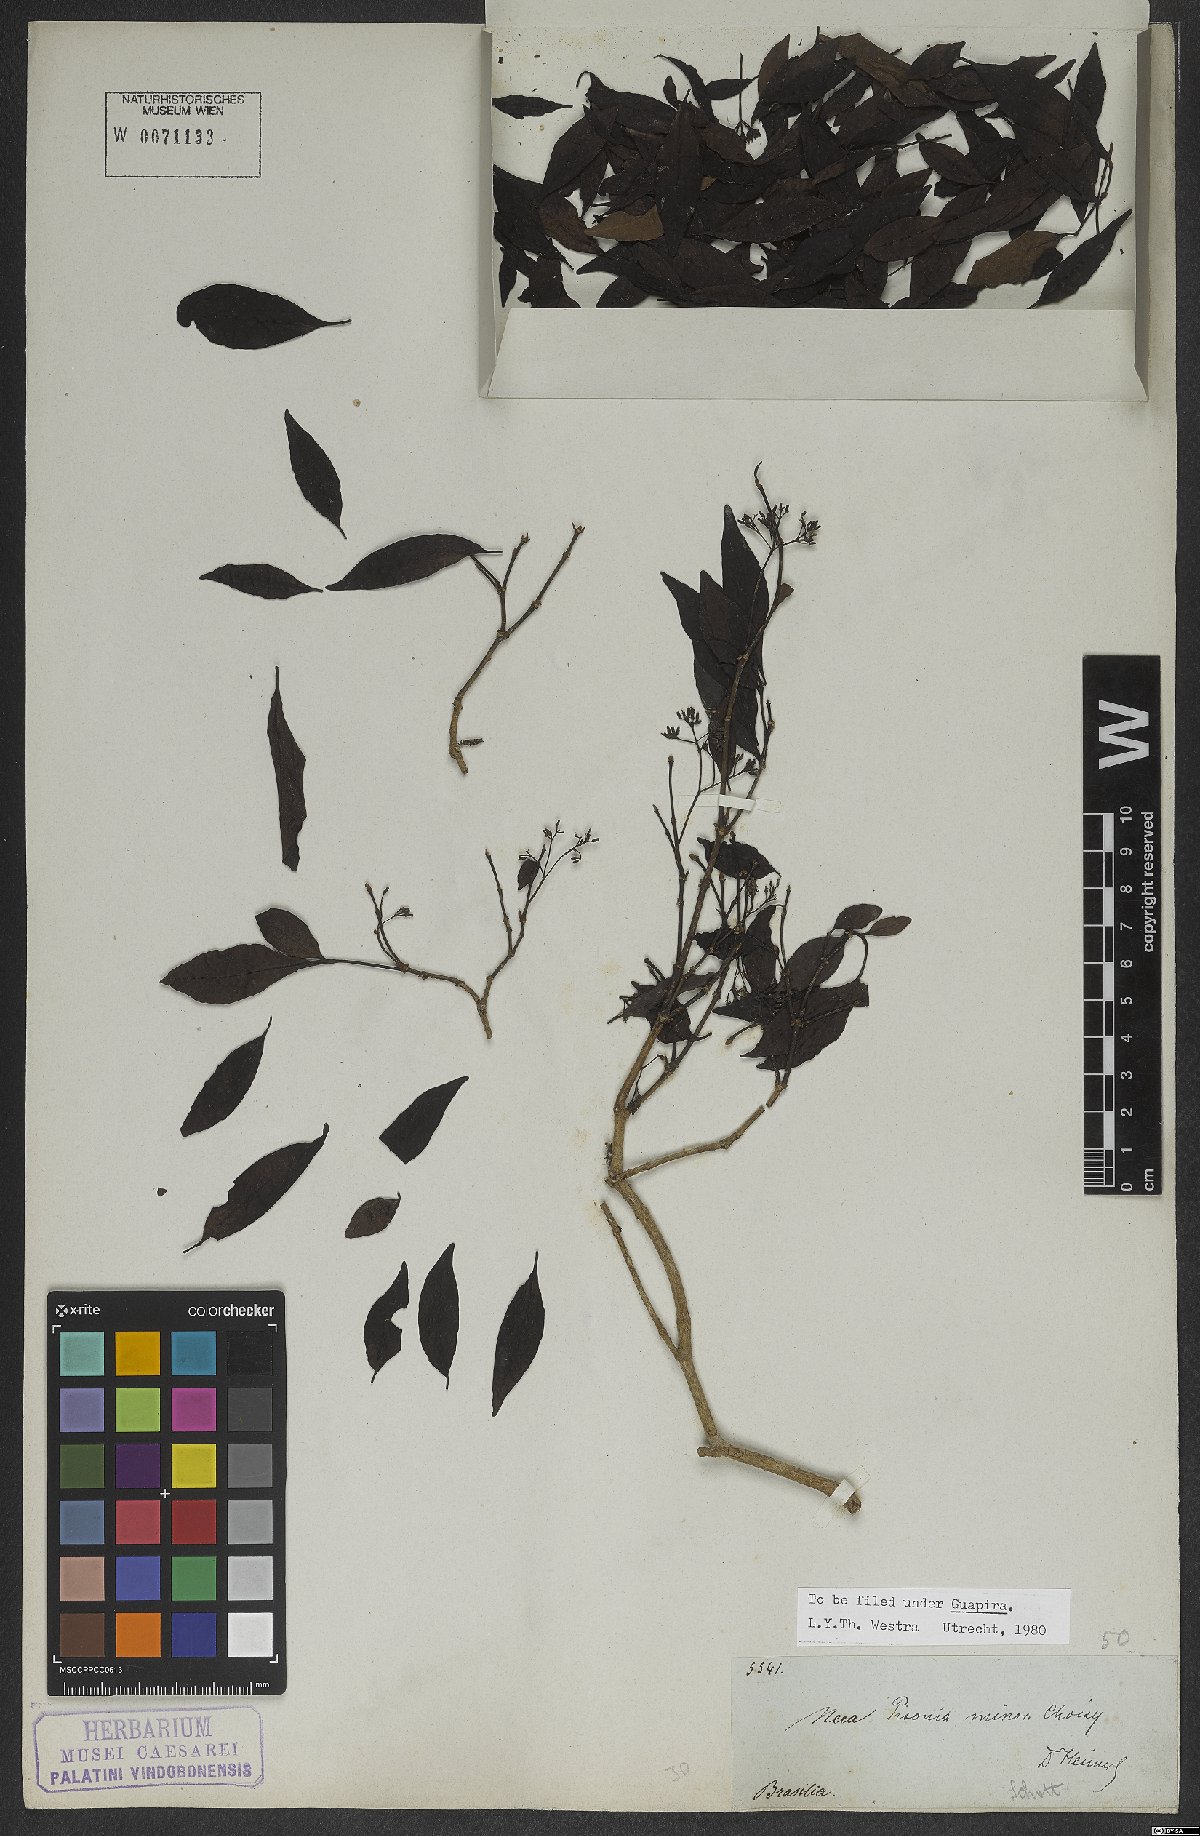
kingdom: Plantae
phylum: Tracheophyta
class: Magnoliopsida
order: Caryophyllales
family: Nyctaginaceae
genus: Pisonia
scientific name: Pisonia aculeata
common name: Cockspur vine
